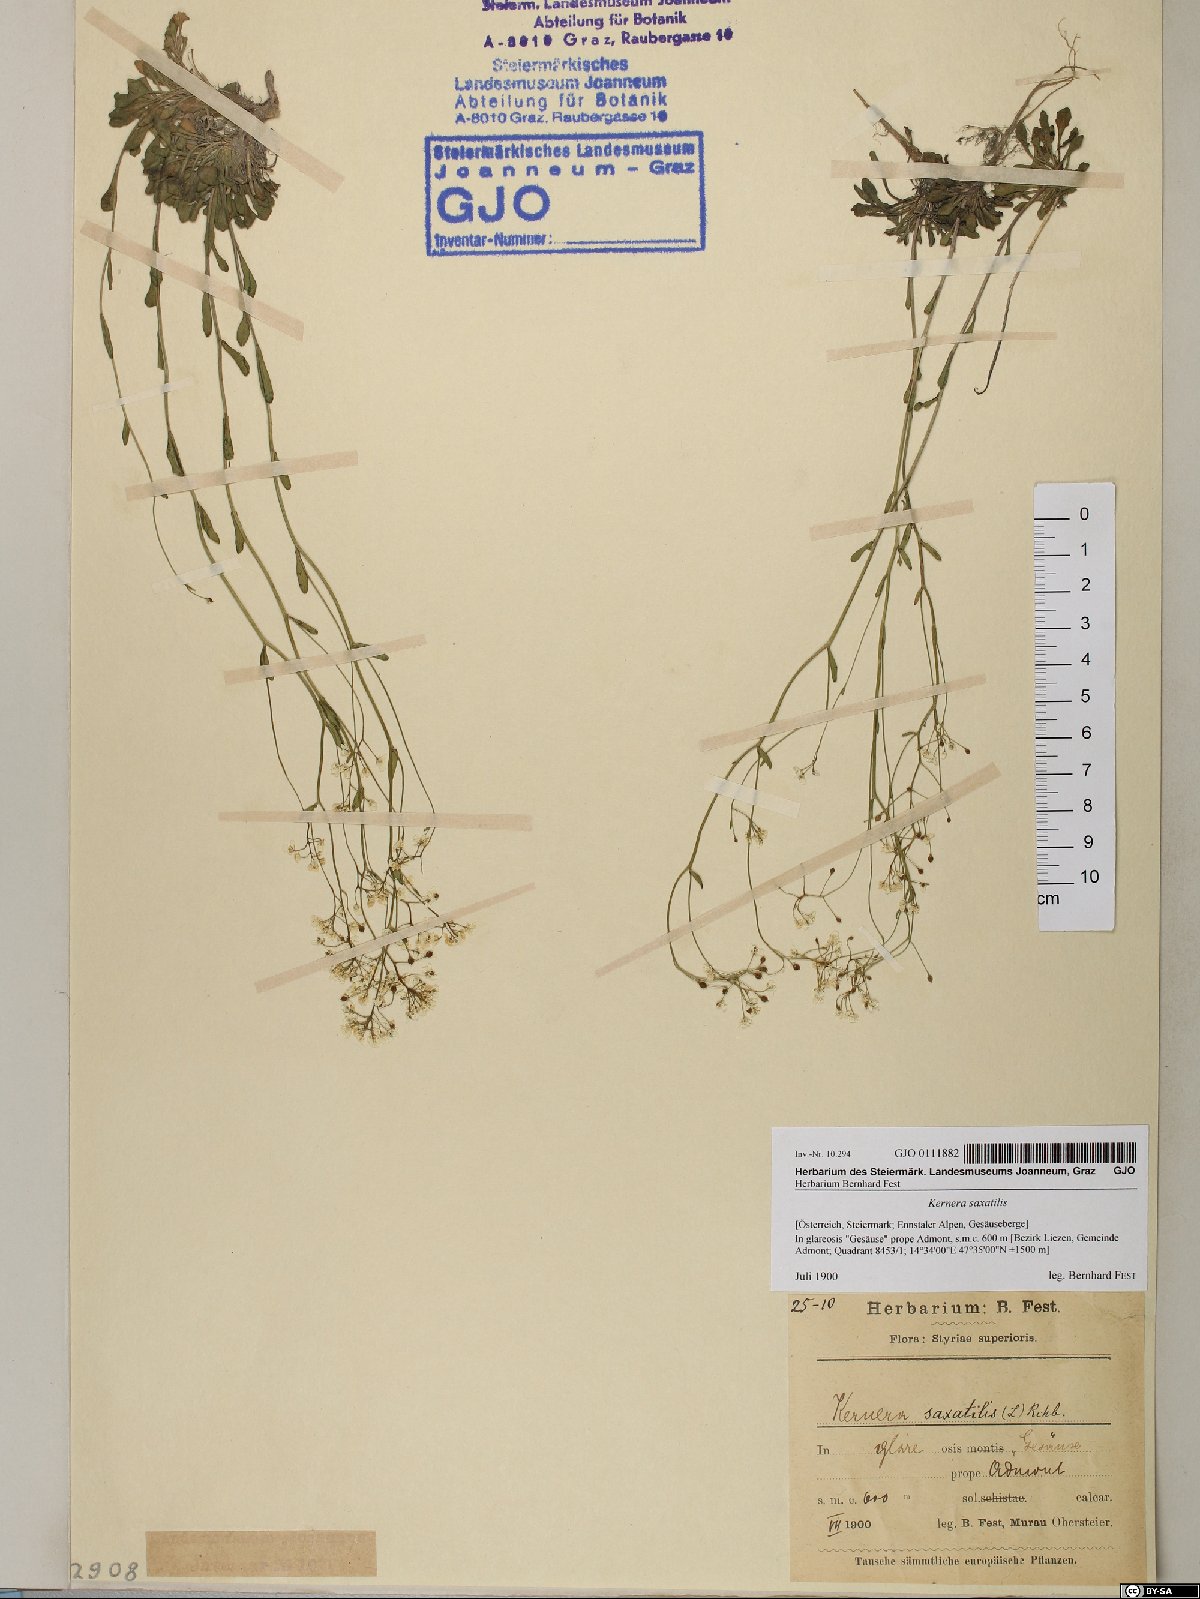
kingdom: Plantae
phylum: Tracheophyta
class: Magnoliopsida
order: Brassicales
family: Brassicaceae
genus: Kernera
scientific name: Kernera saxatilis
